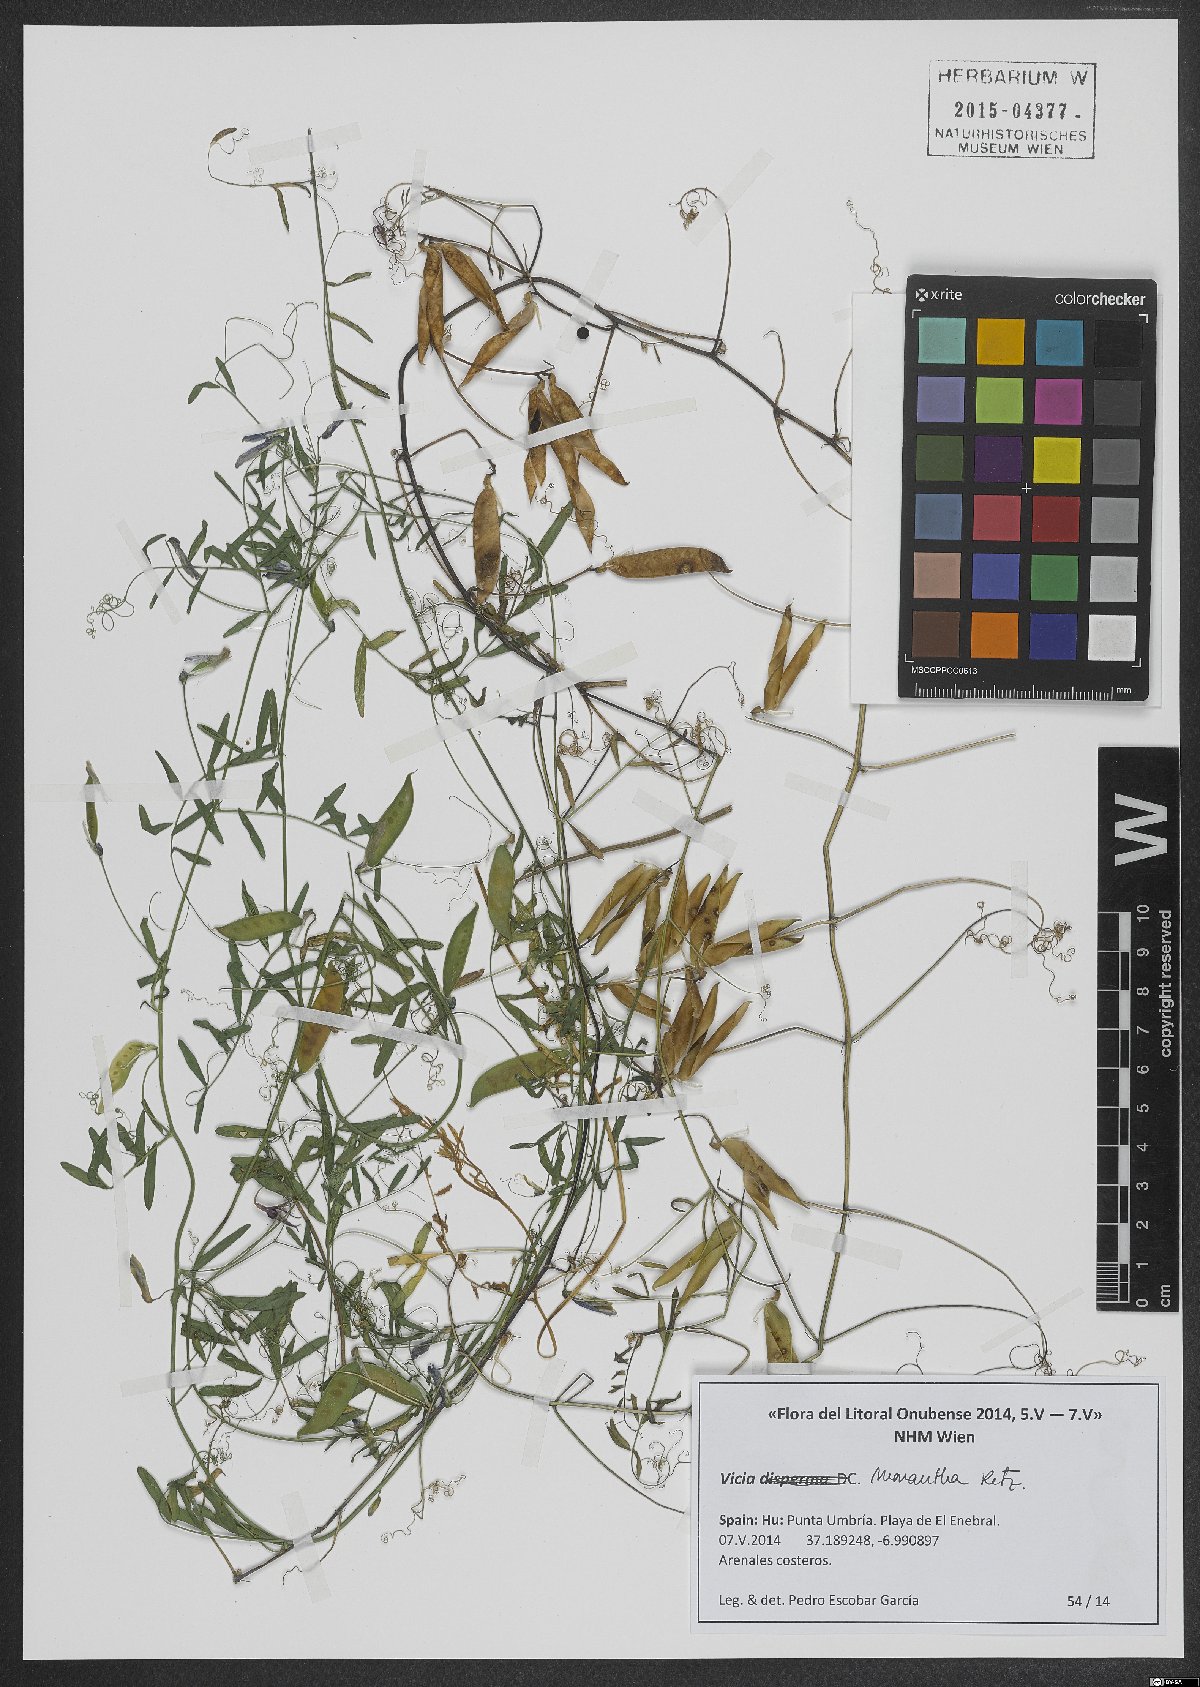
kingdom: Plantae
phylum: Tracheophyta
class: Magnoliopsida
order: Fabales
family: Fabaceae
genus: Vicia
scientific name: Vicia monantha
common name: Barn vetch
